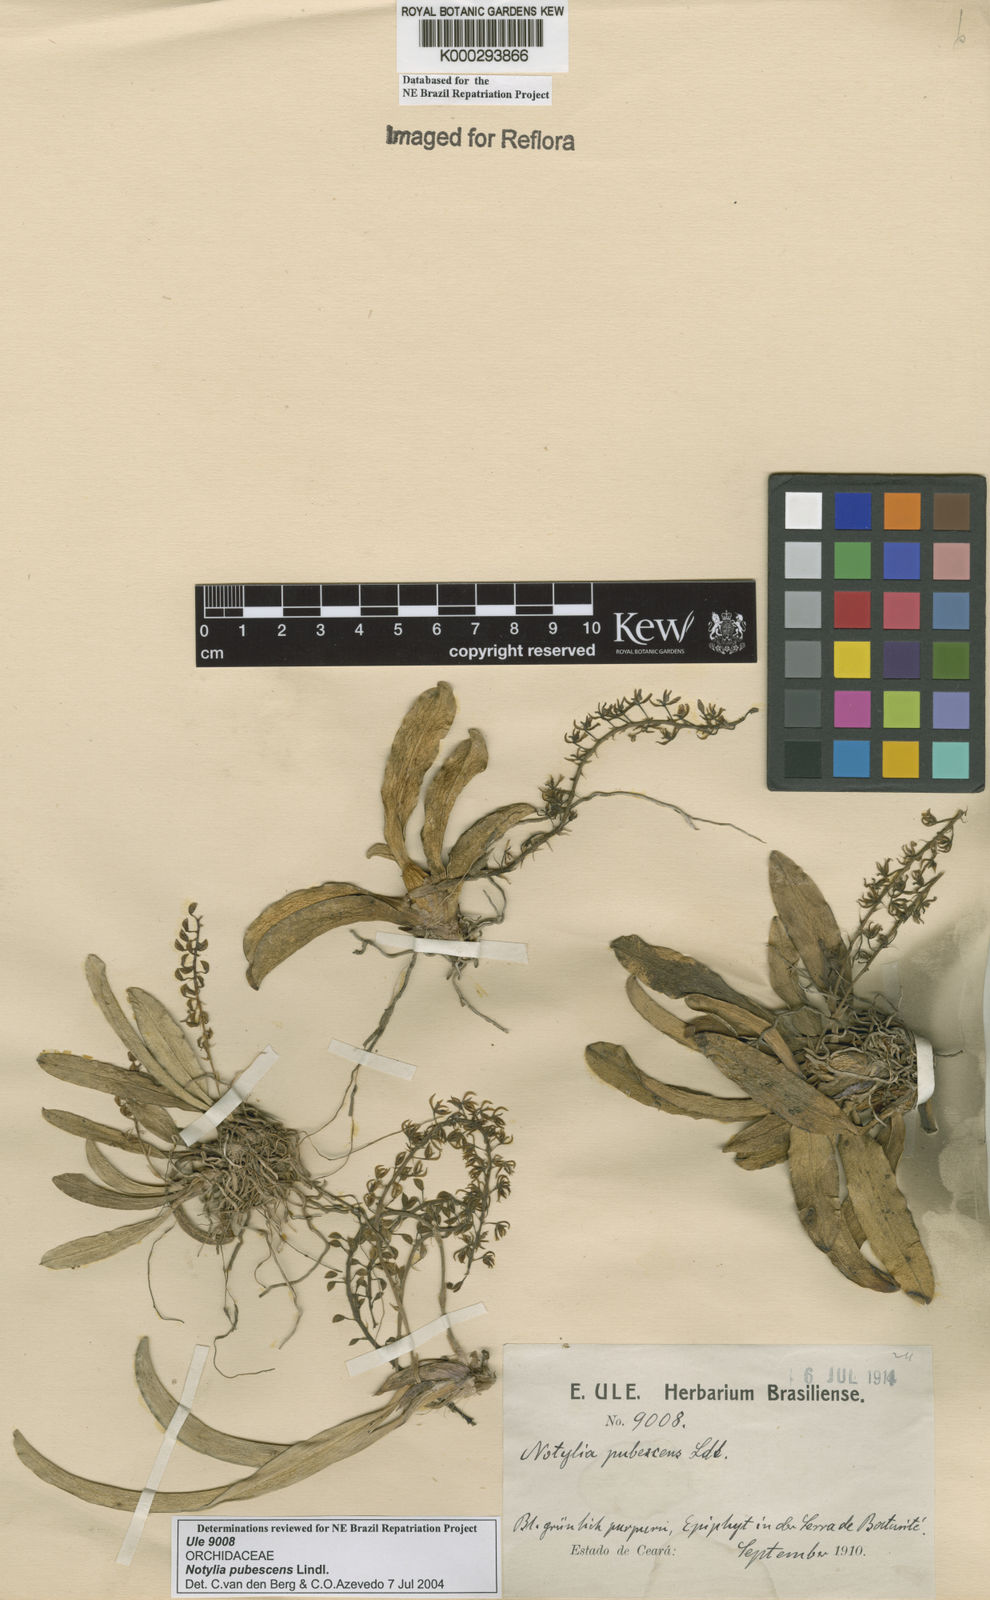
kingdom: Plantae
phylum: Tracheophyta
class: Liliopsida
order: Asparagales
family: Orchidaceae
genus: Notylia
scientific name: Notylia pubescens
